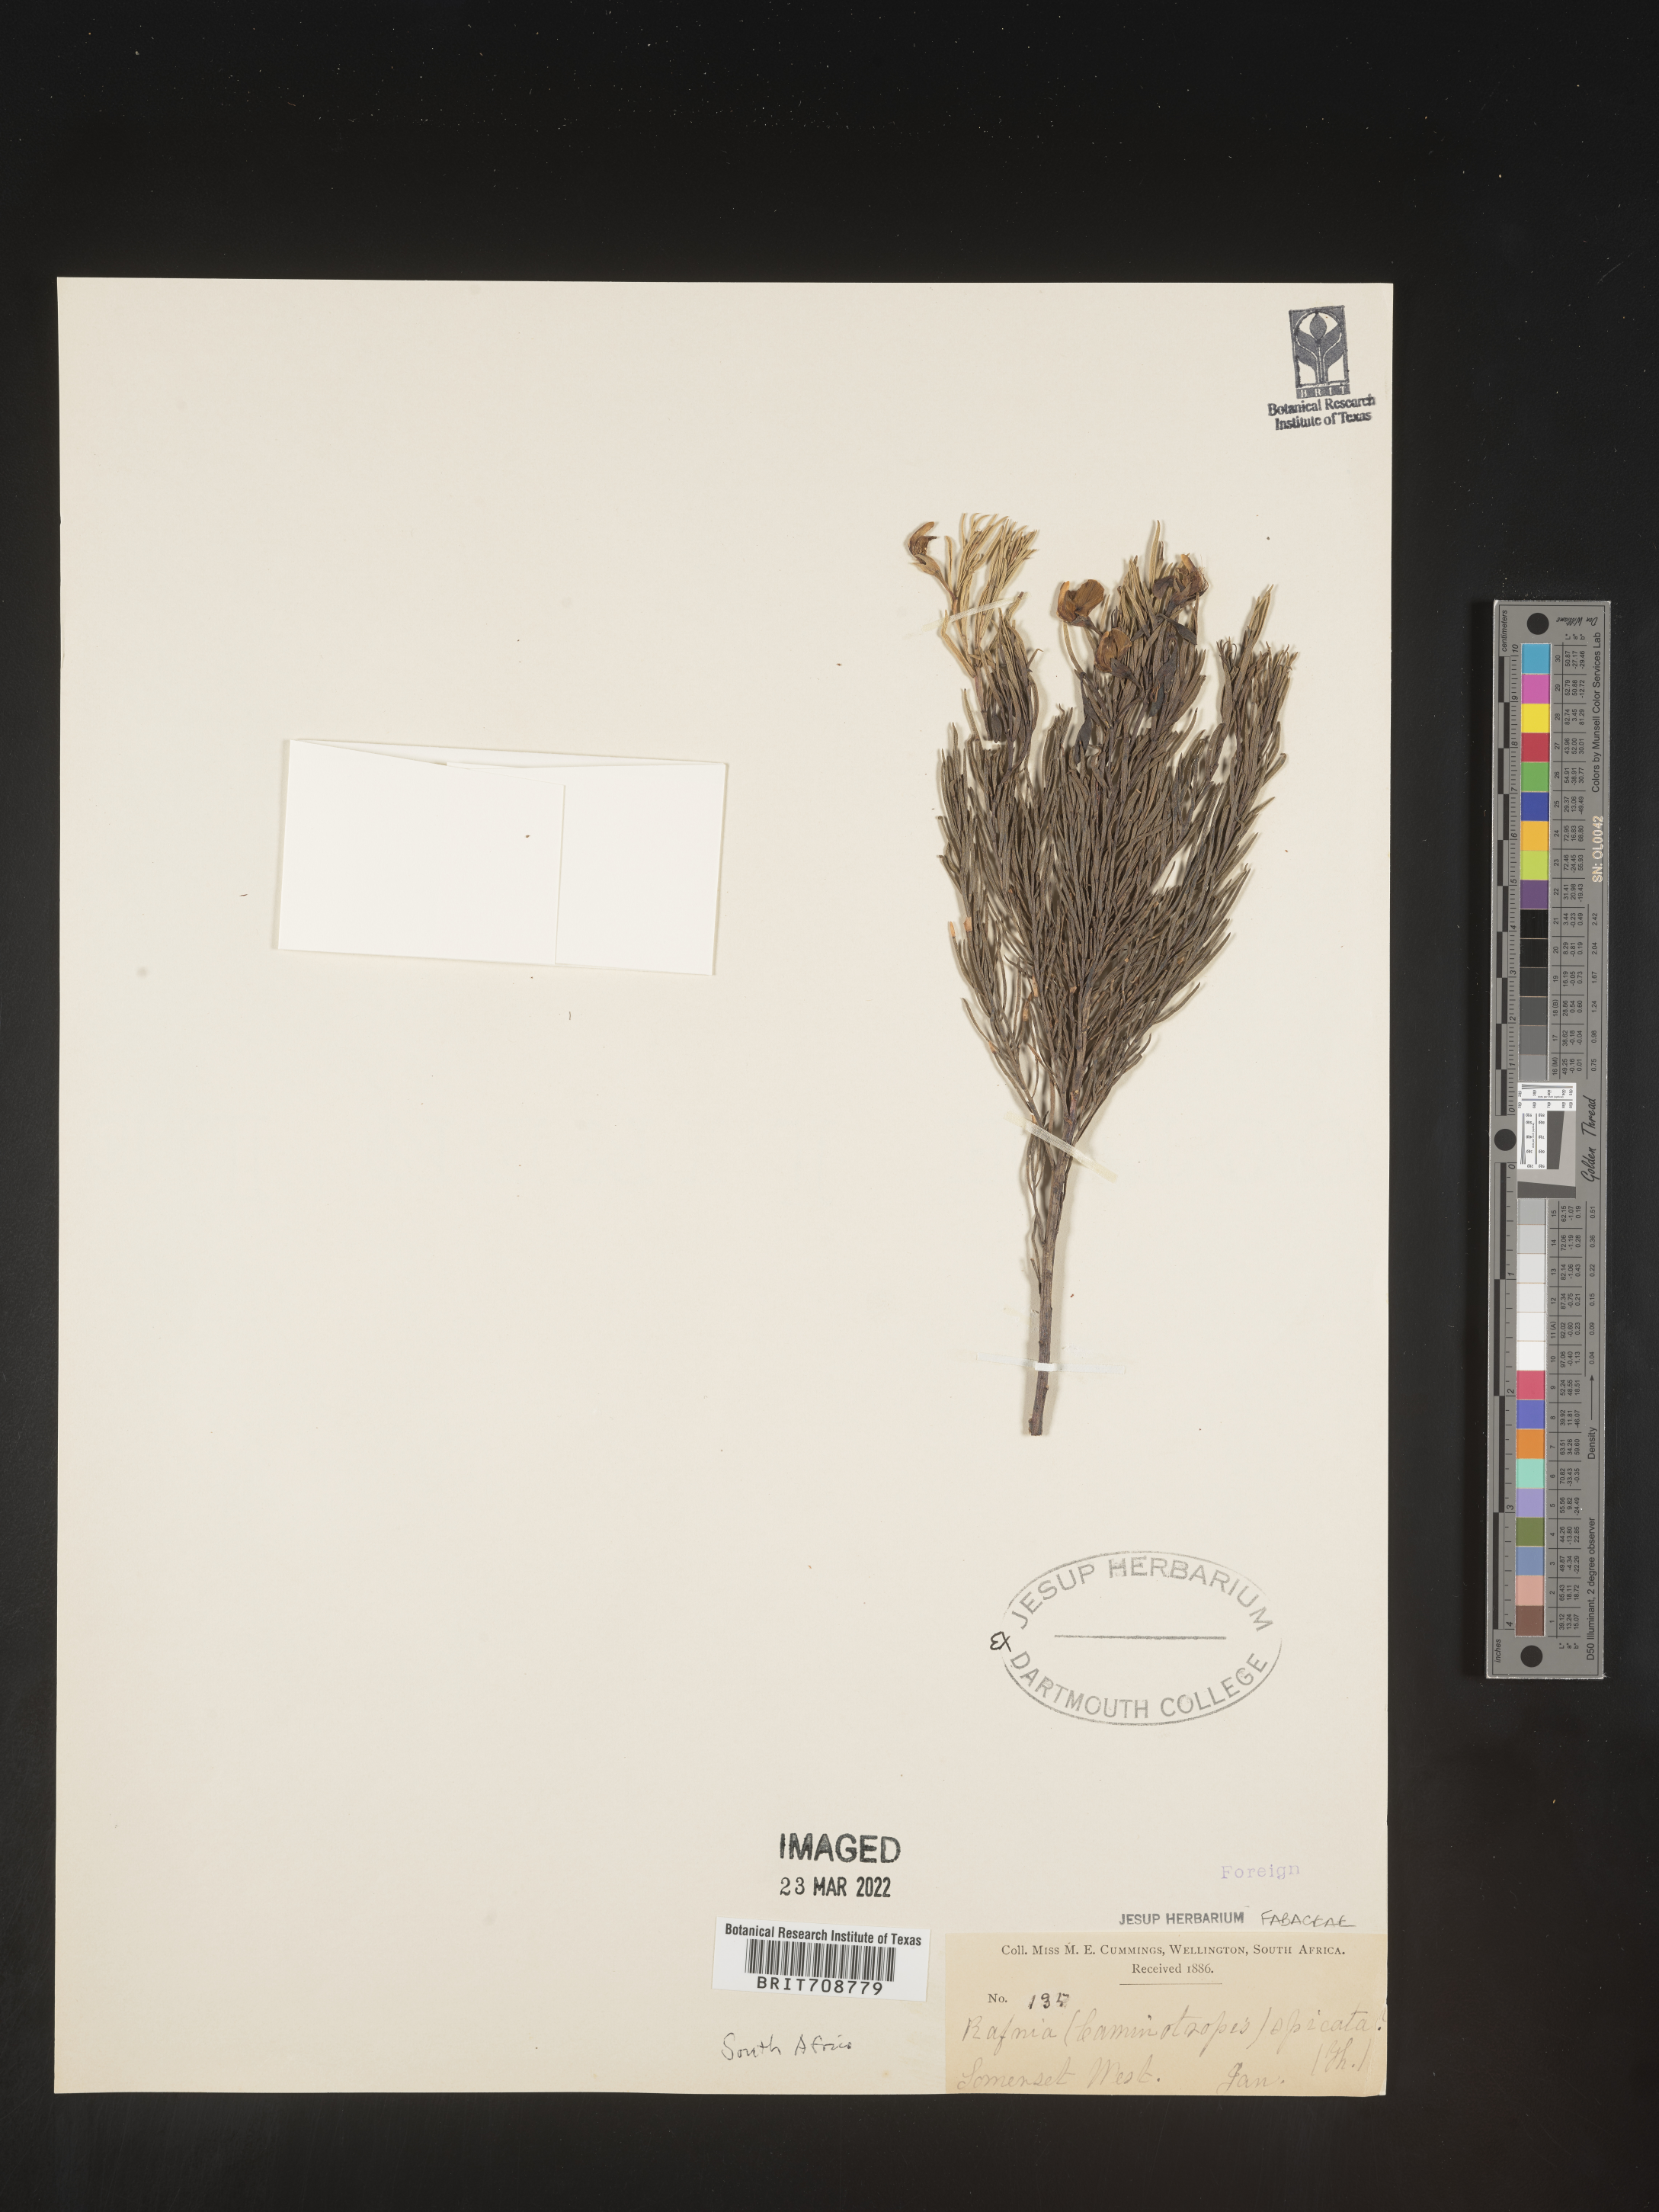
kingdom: Plantae
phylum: Tracheophyta
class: Magnoliopsida
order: Fabales
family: Fabaceae
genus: Rafnia
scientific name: Rafnia
